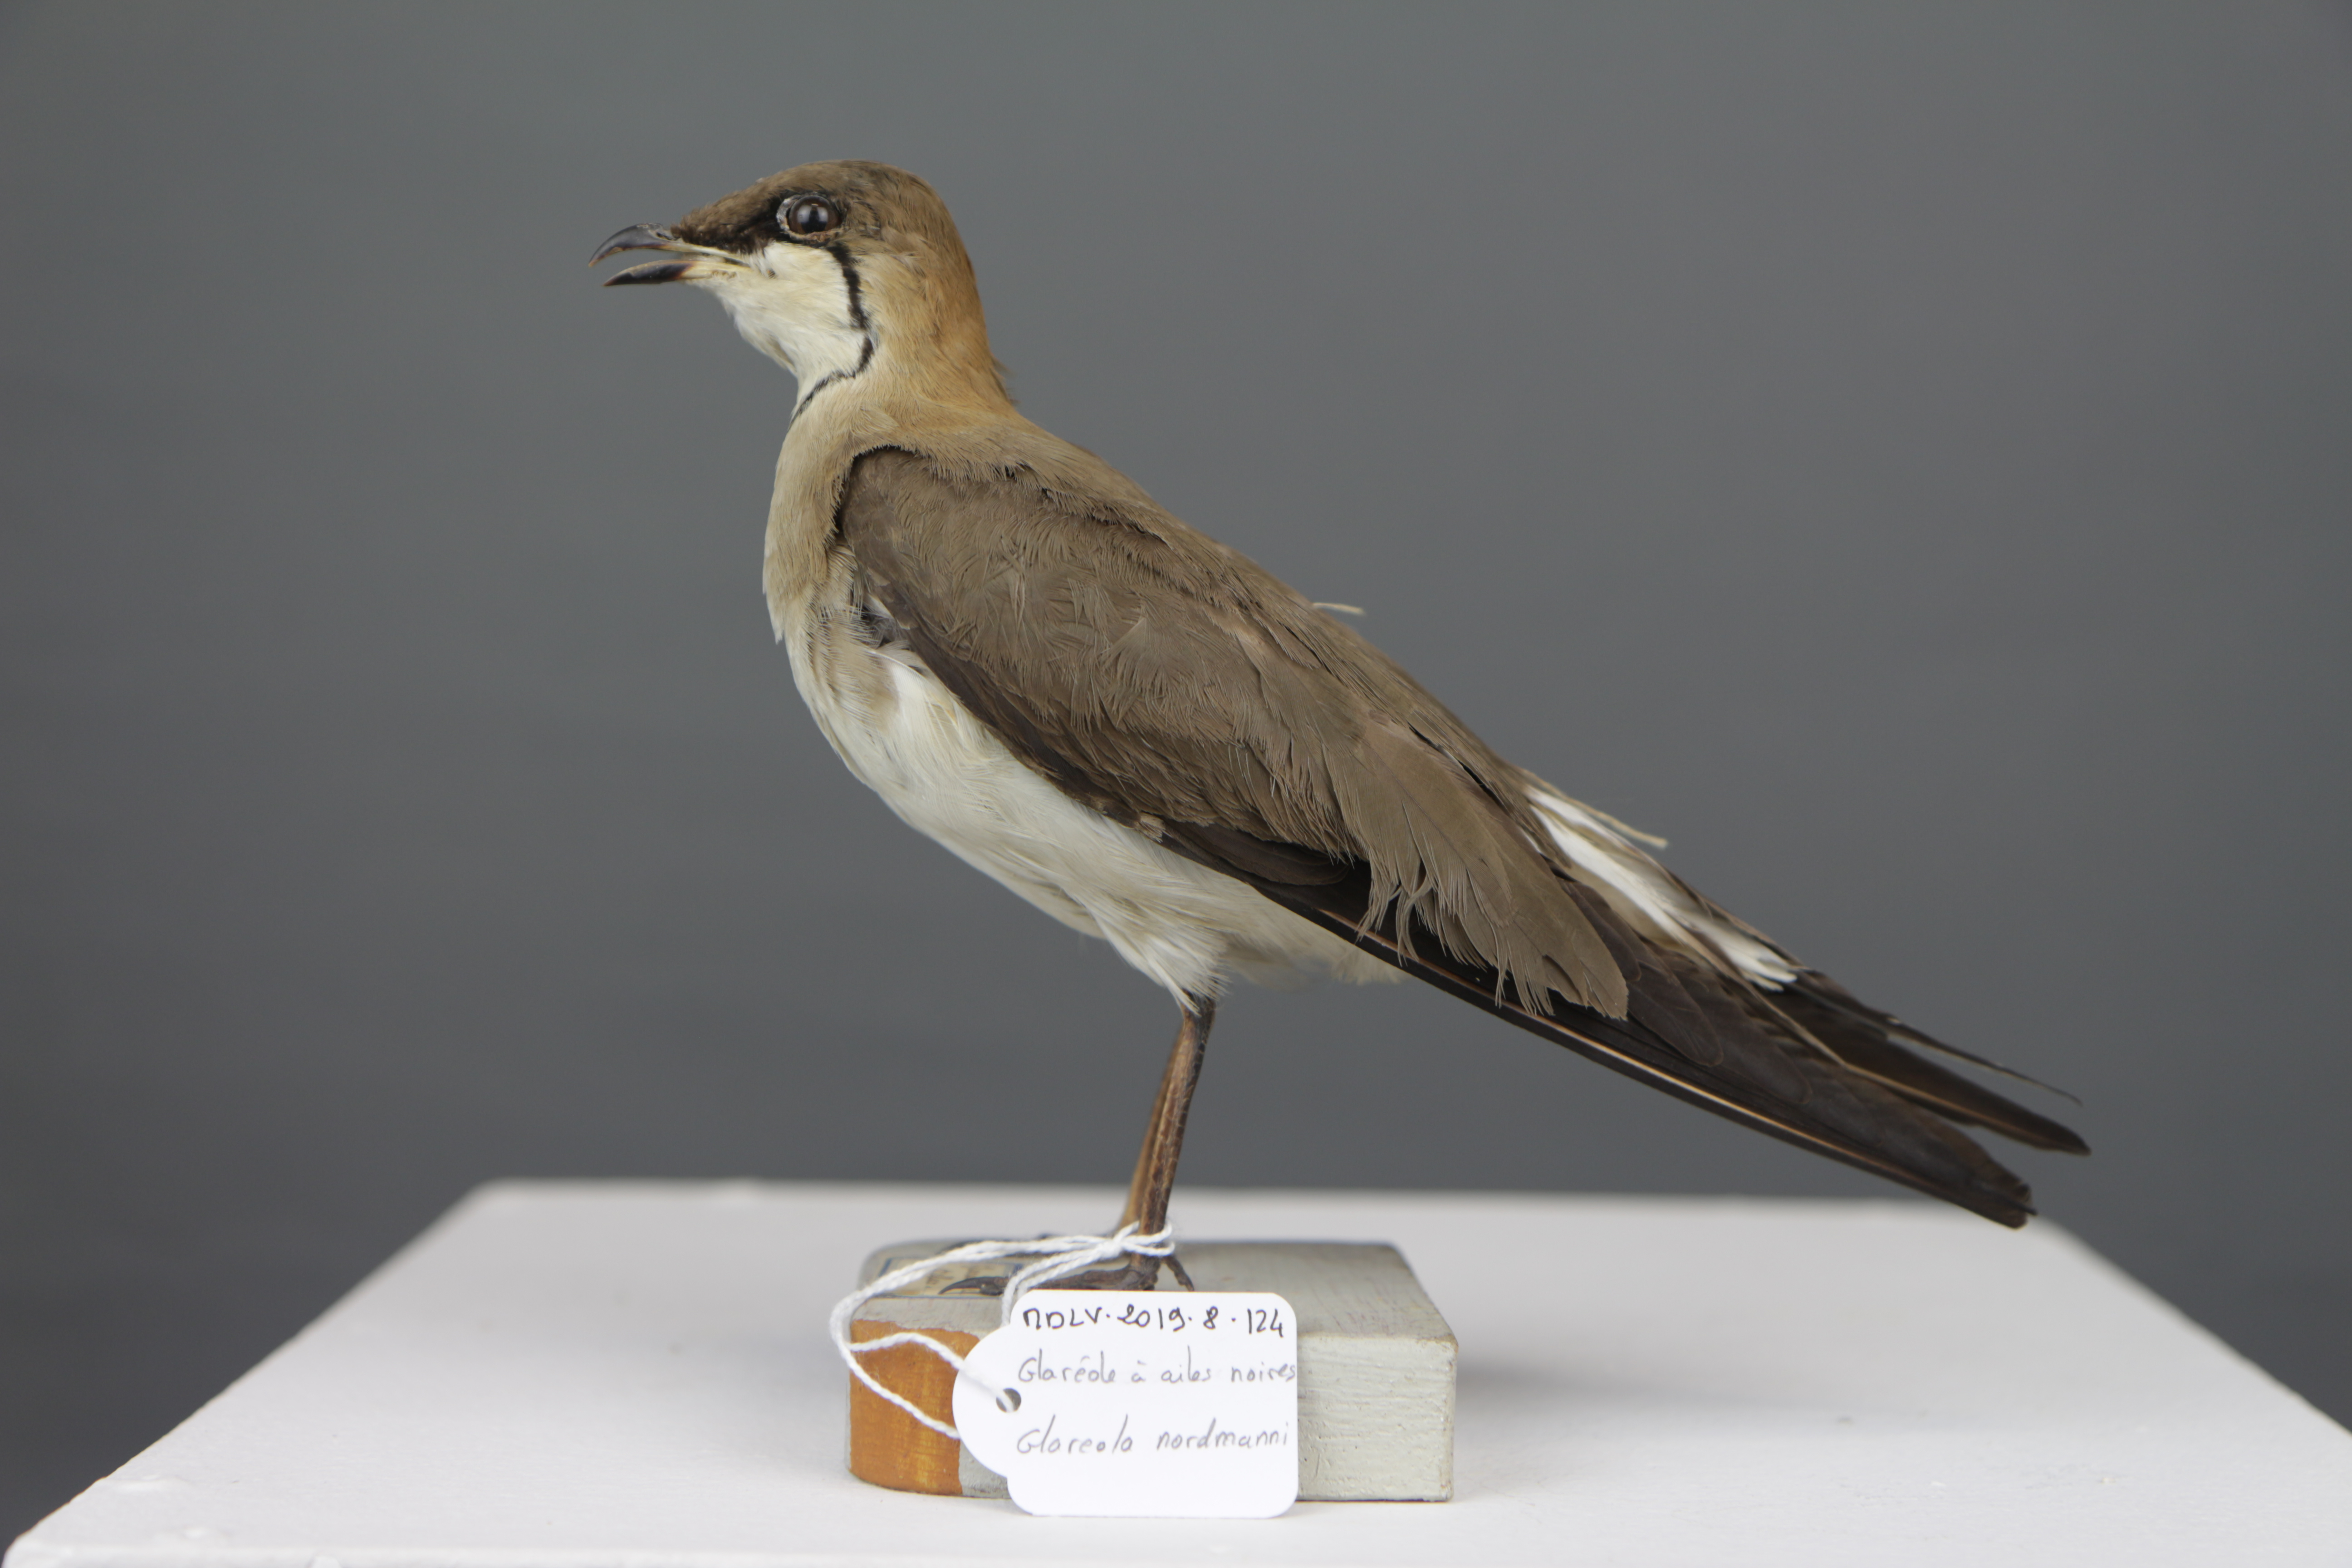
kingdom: Animalia
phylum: Chordata
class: Aves
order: Charadriiformes
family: Glareolidae
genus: Glareola
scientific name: Glareola nordmanni
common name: Black-winged pratincole
